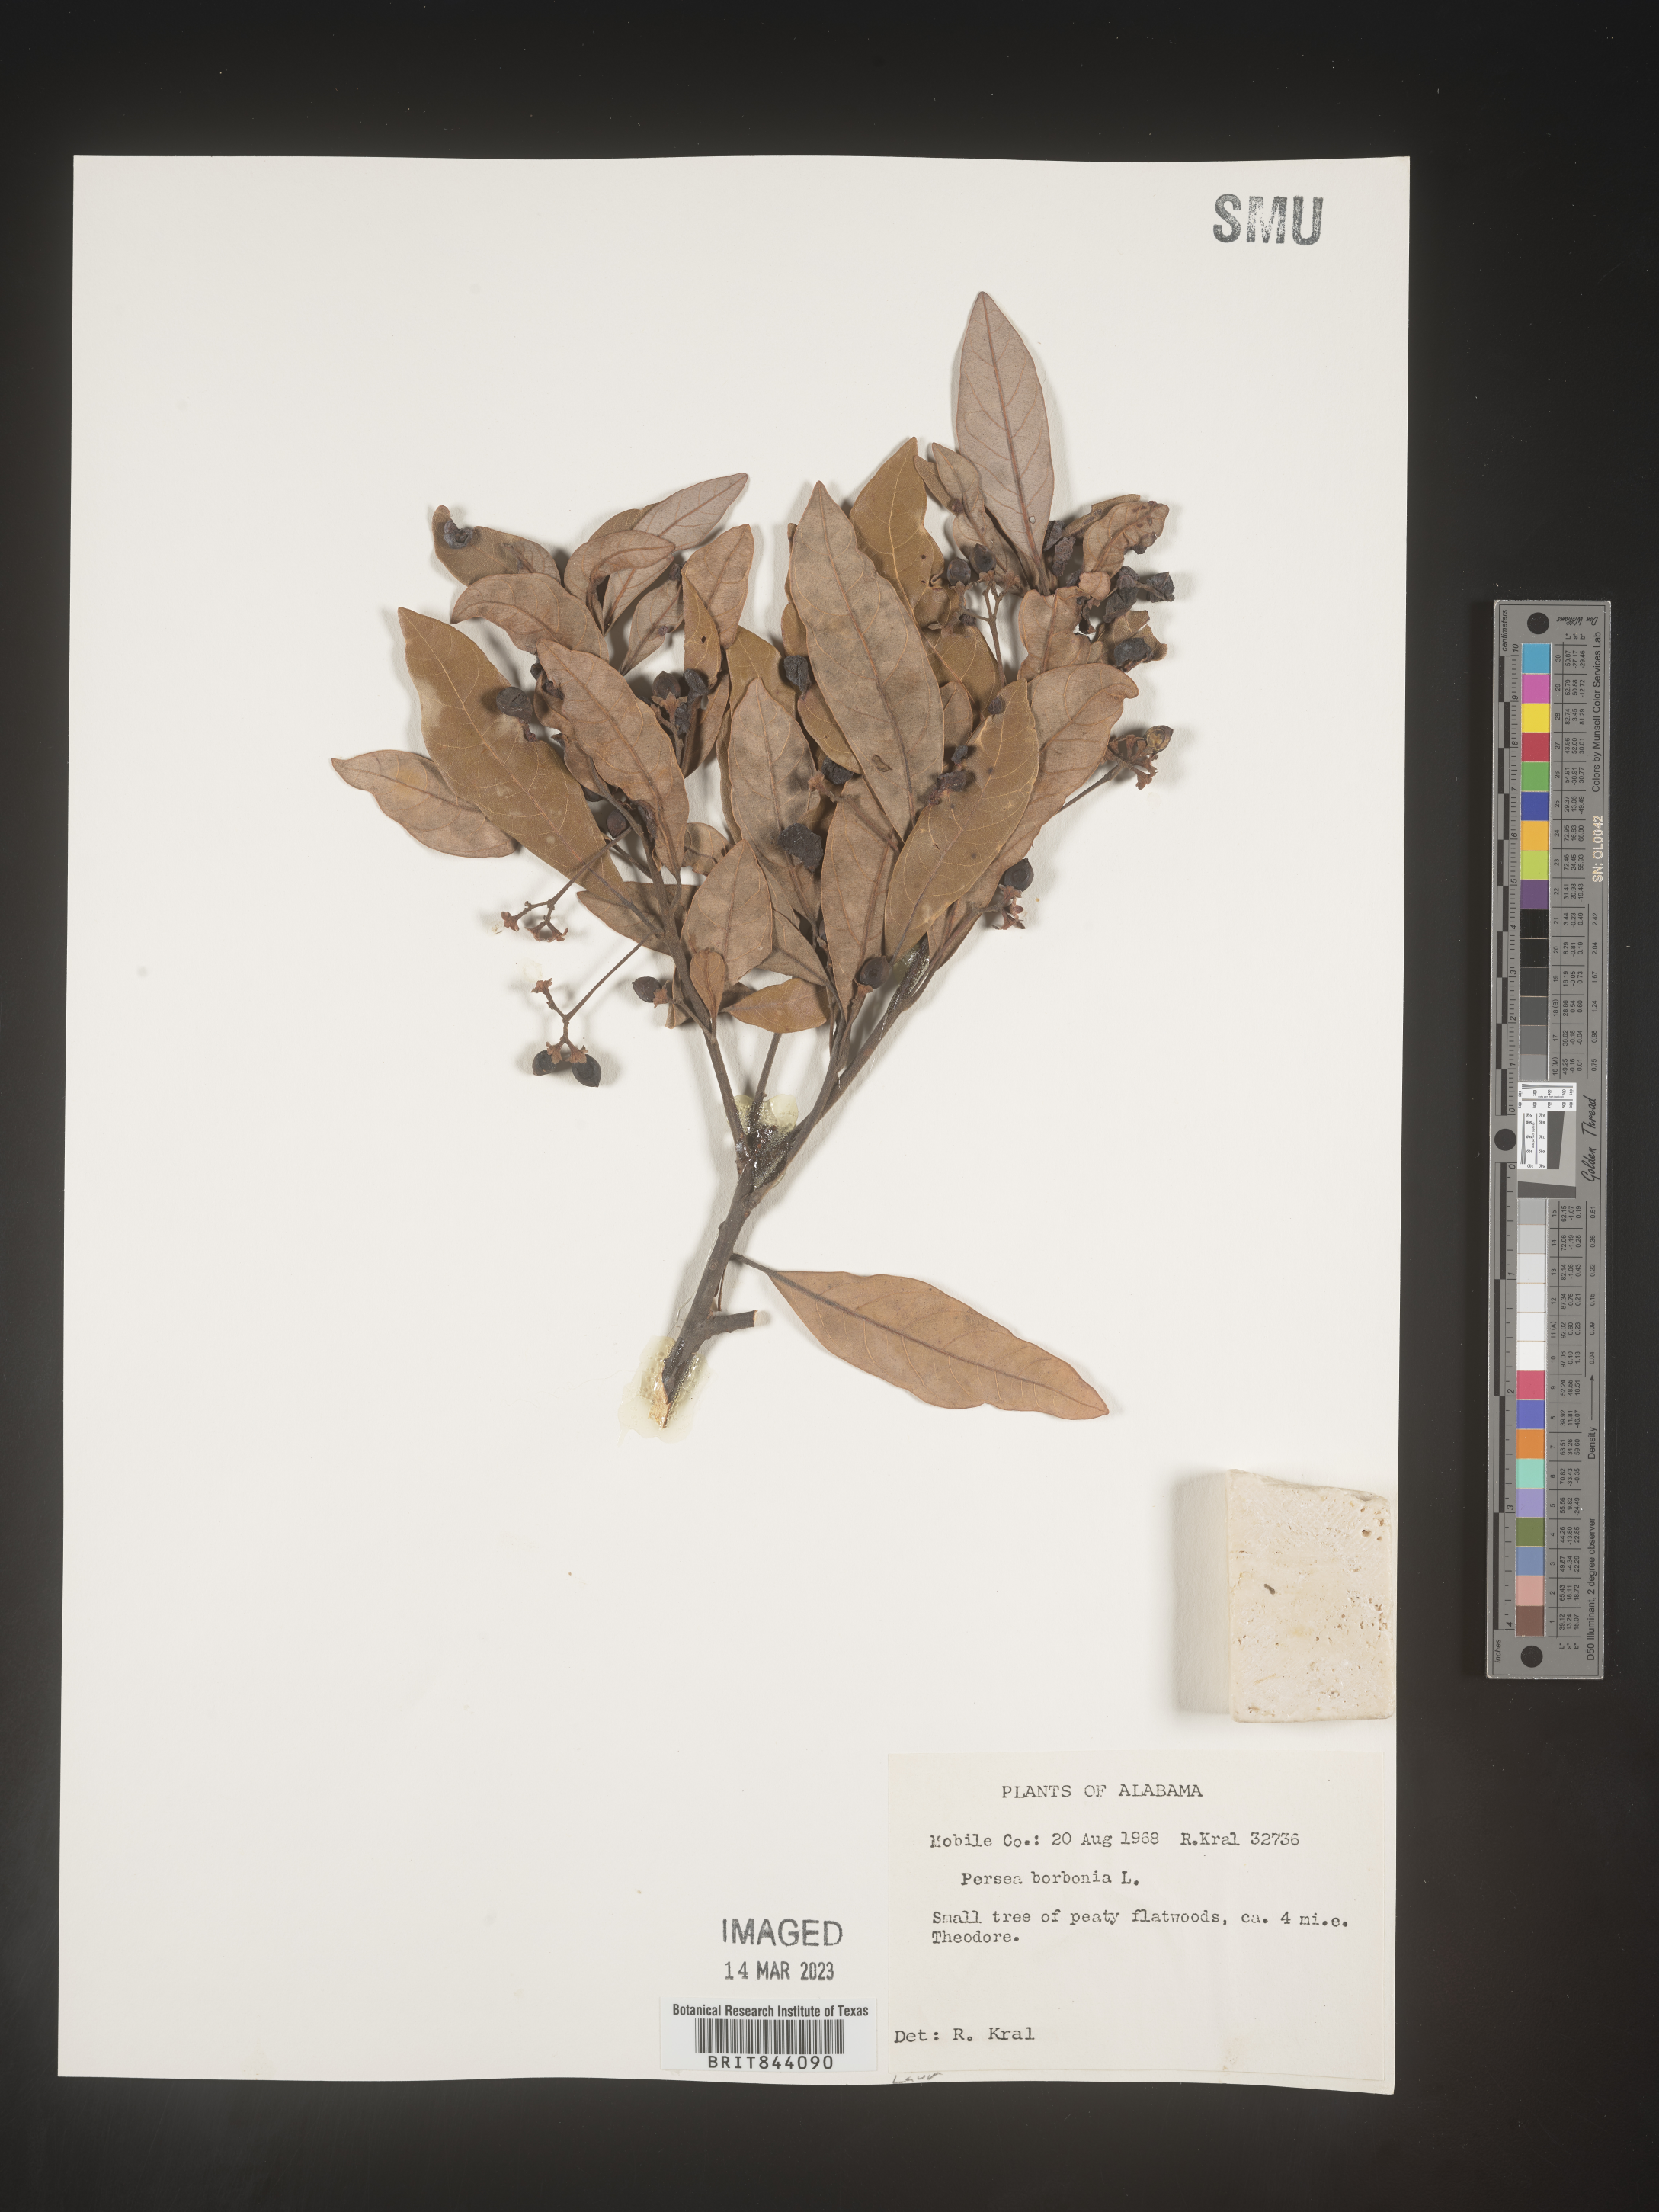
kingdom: Plantae
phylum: Tracheophyta
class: Magnoliopsida
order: Laurales
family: Lauraceae
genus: Persea
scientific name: Persea borbonia
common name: Redbay
